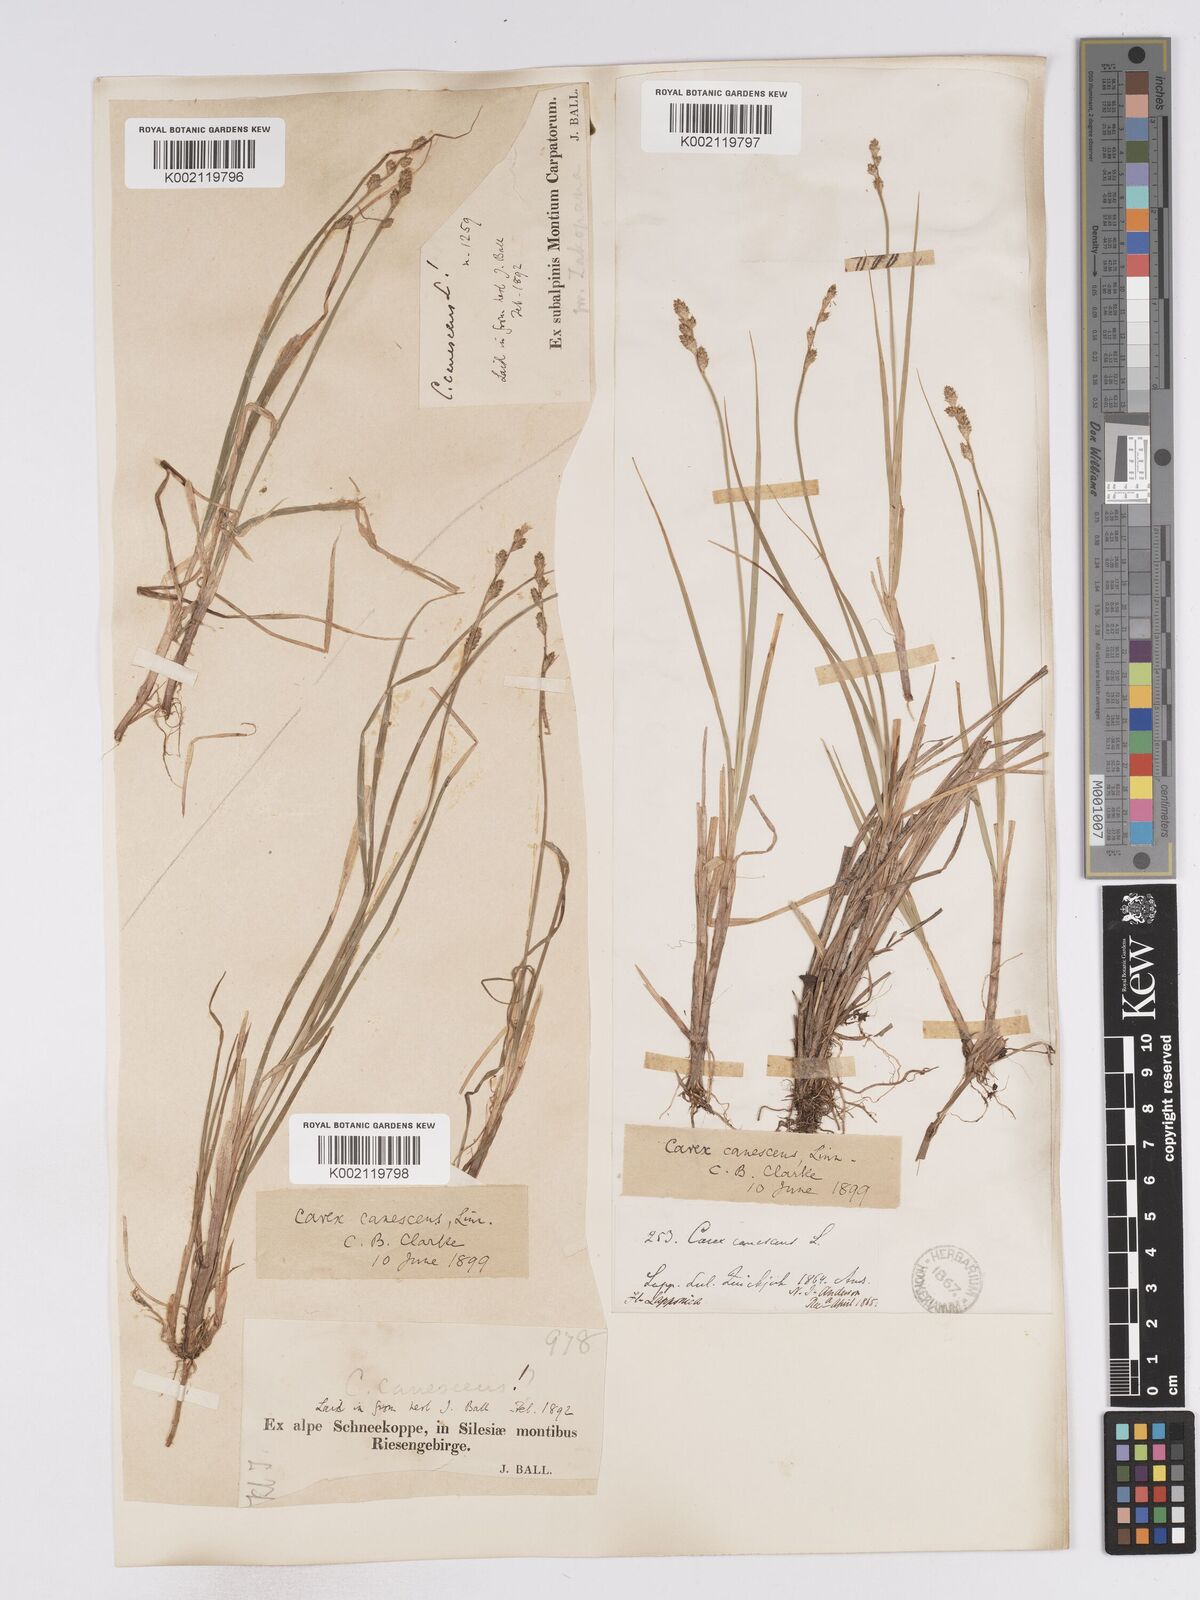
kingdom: Plantae
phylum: Tracheophyta
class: Liliopsida
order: Poales
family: Cyperaceae
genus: Carex
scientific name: Carex curta
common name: White sedge
